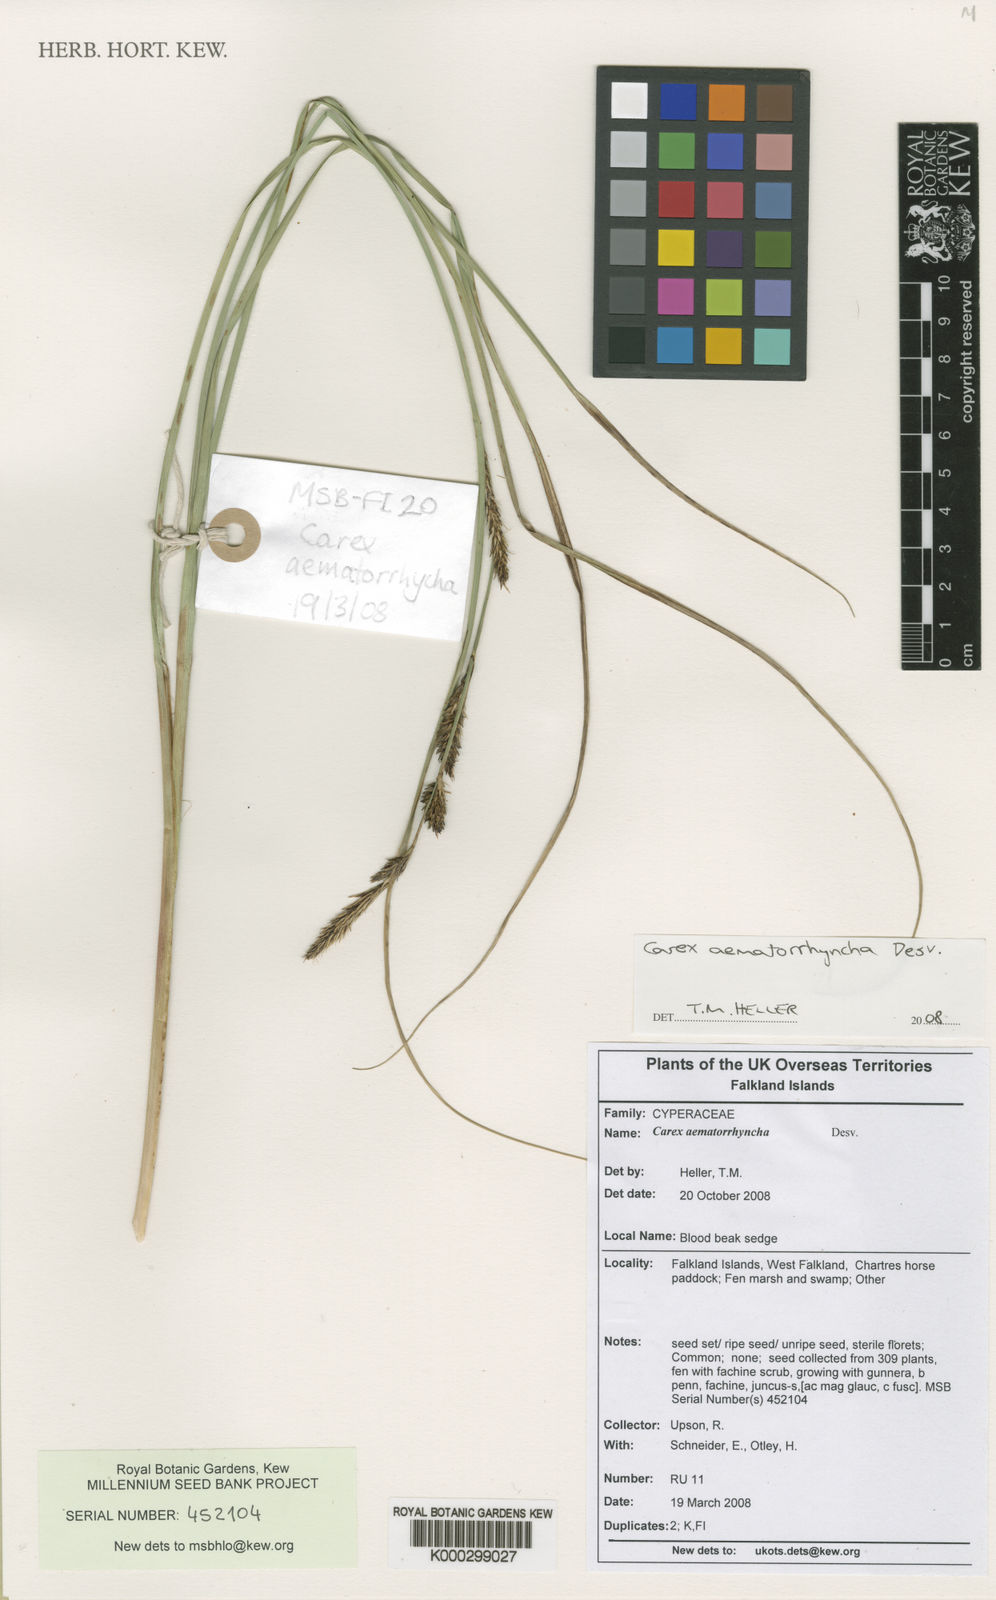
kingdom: Plantae
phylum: Tracheophyta
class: Liliopsida
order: Poales
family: Cyperaceae
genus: Carex
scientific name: Carex aematorhyncha
